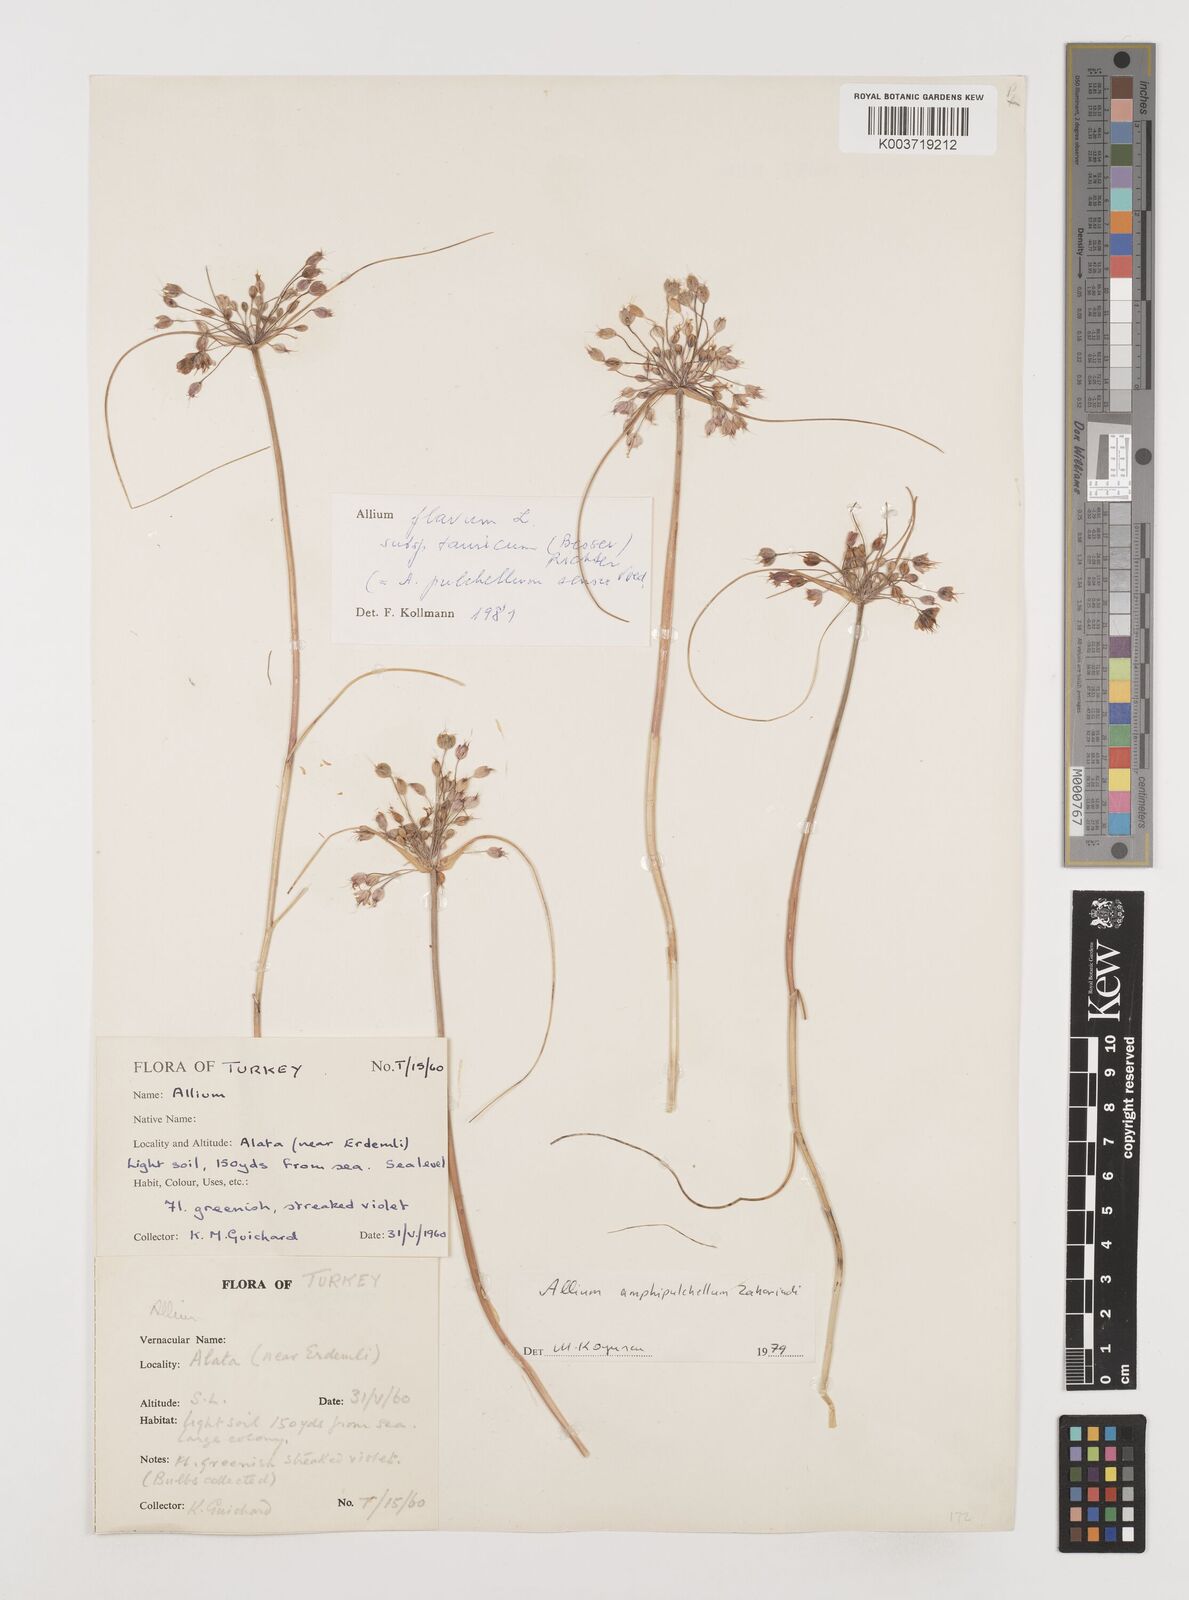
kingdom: Plantae
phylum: Tracheophyta
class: Liliopsida
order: Asparagales
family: Amaryllidaceae
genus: Allium
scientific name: Allium flavum
